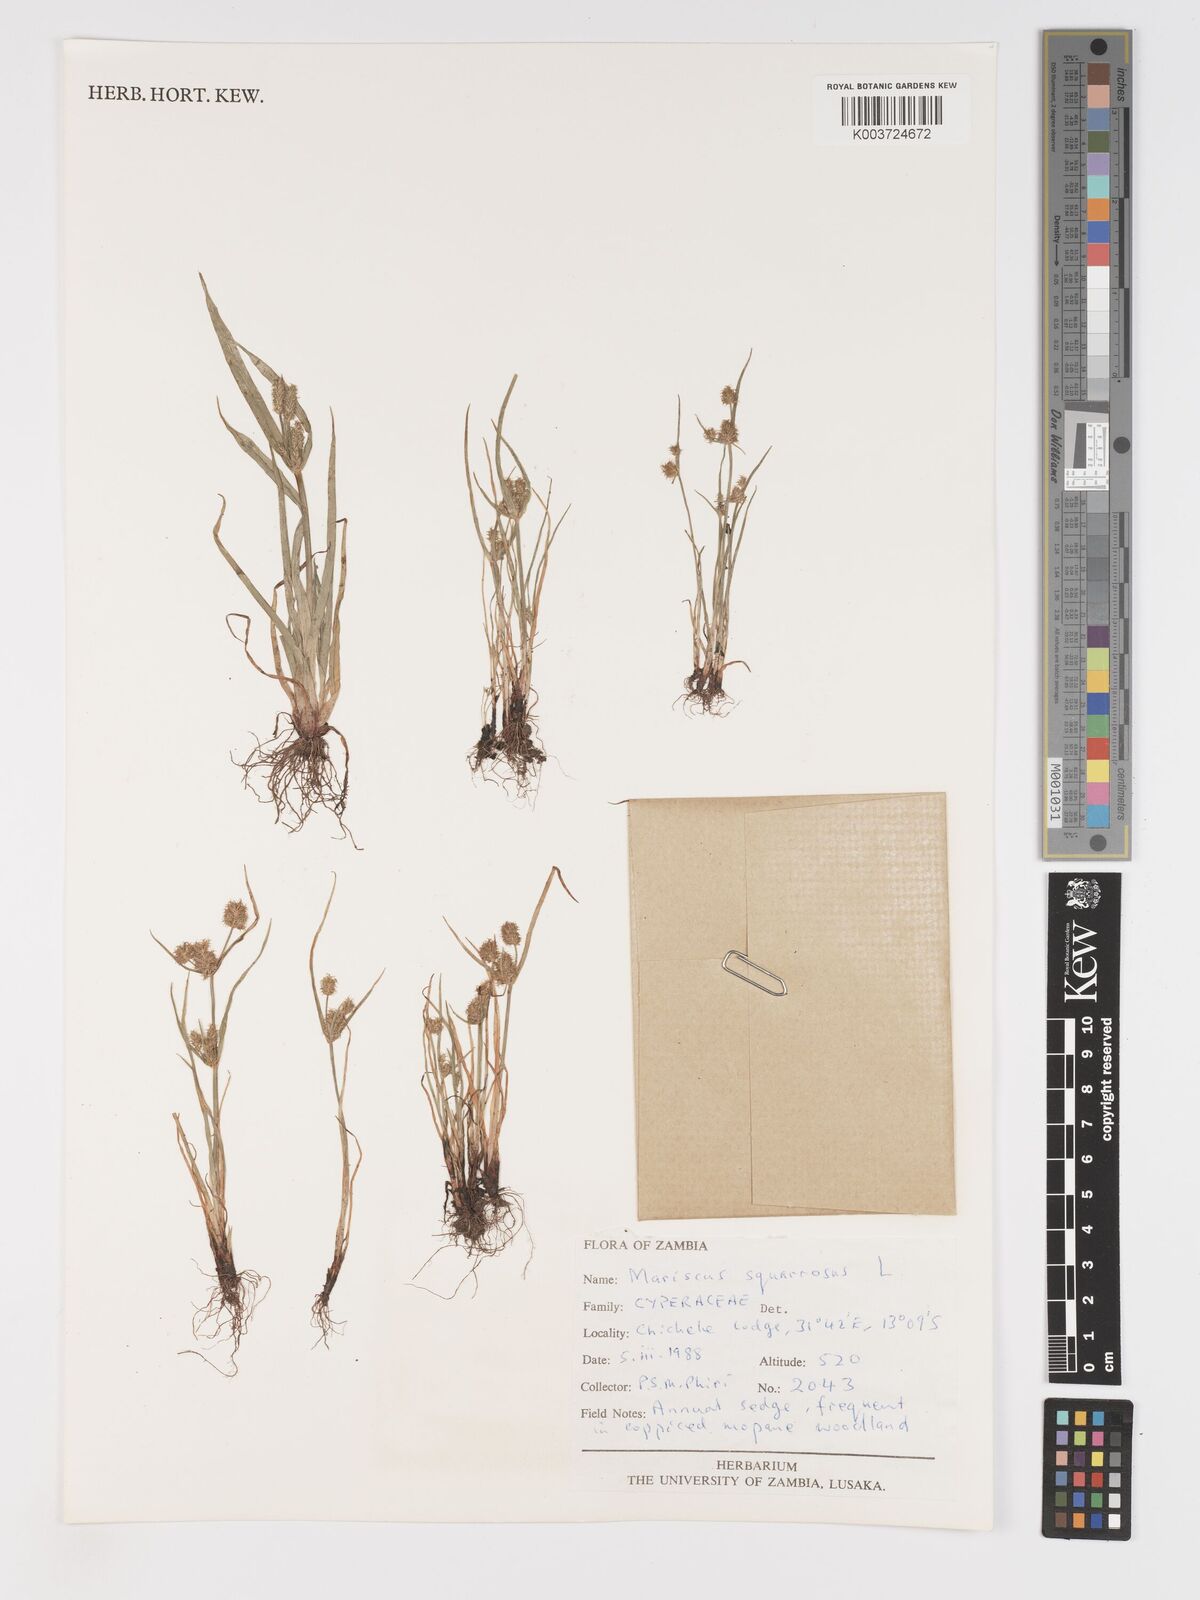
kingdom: Plantae
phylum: Tracheophyta
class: Liliopsida
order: Poales
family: Cyperaceae
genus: Cyperus
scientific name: Cyperus squarrosus
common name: Awned cyperus
